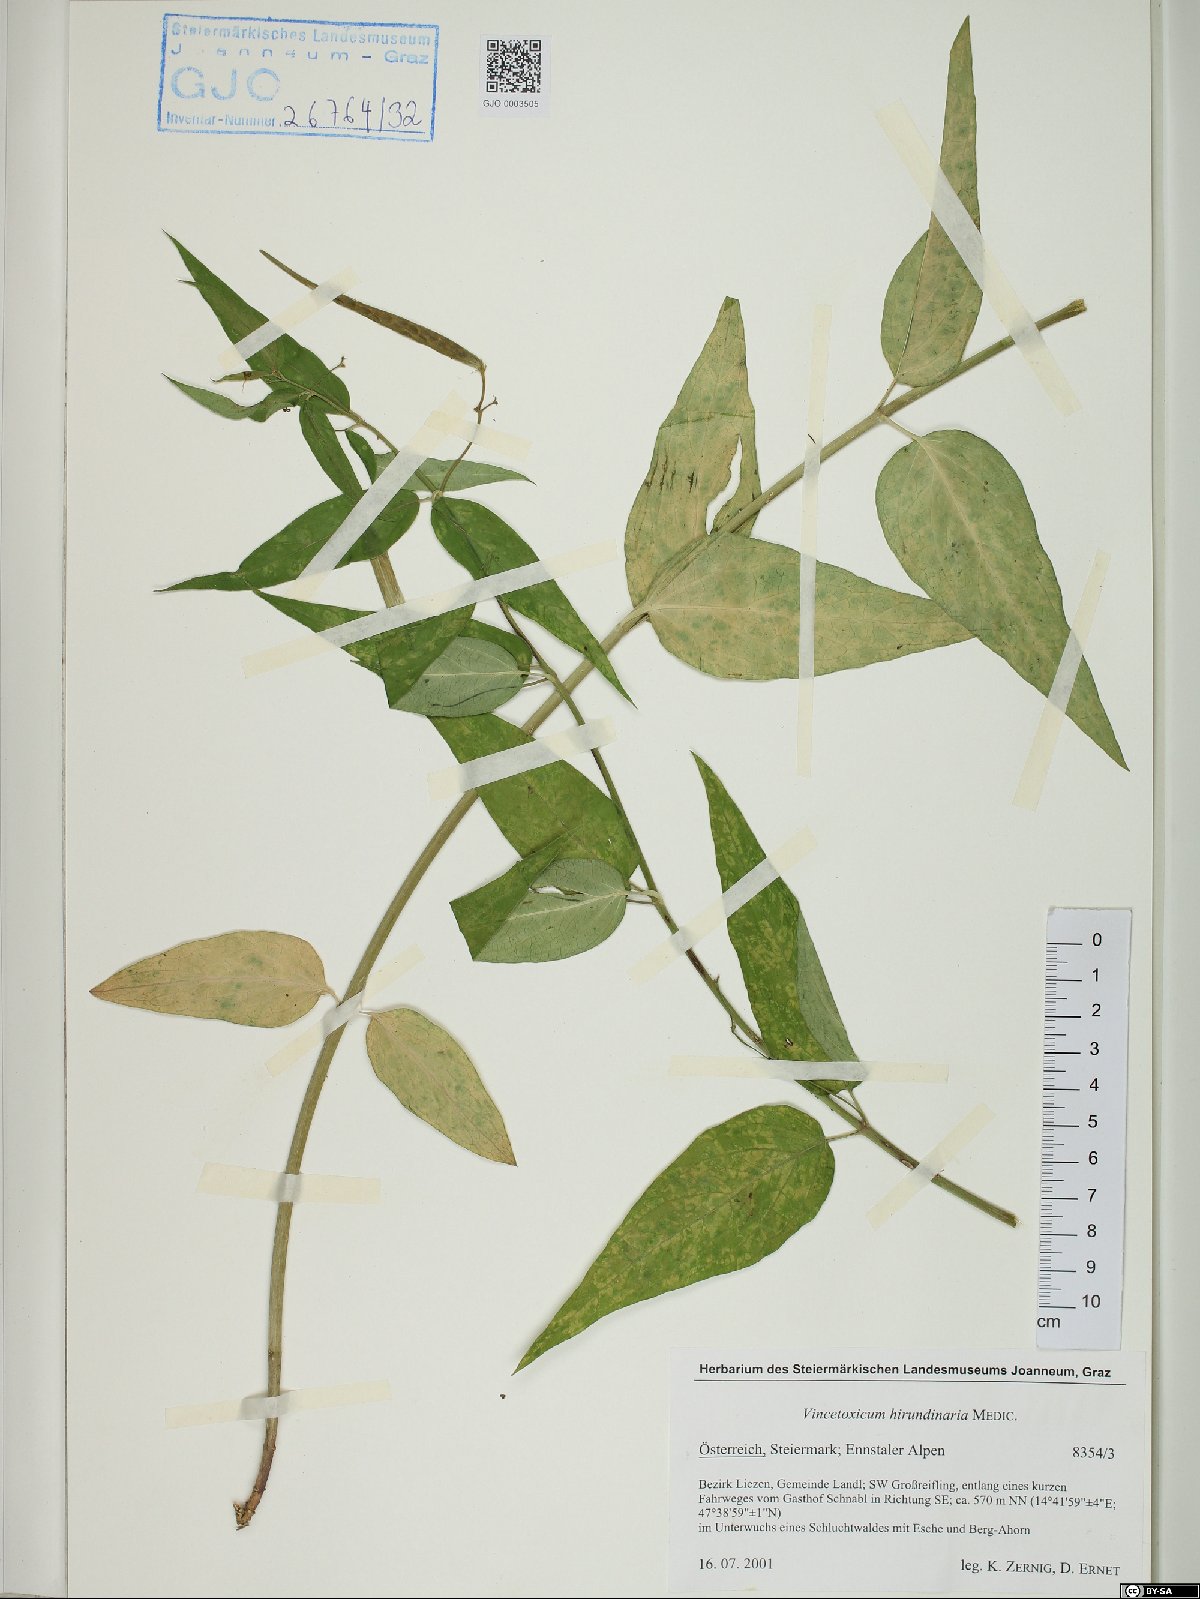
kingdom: Plantae
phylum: Tracheophyta
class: Magnoliopsida
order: Gentianales
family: Apocynaceae
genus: Vincetoxicum
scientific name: Vincetoxicum hirundinaria
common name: White swallowwort
